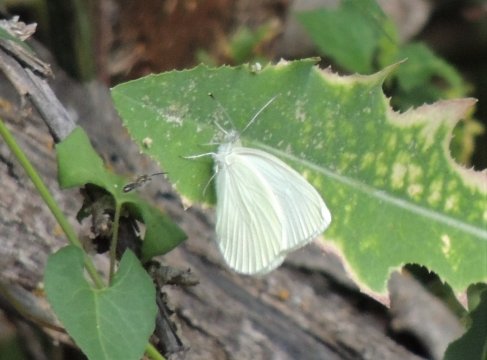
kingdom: Animalia
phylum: Arthropoda
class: Insecta
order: Lepidoptera
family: Pieridae
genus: Pieris
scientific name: Pieris marginalis
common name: Margined White
